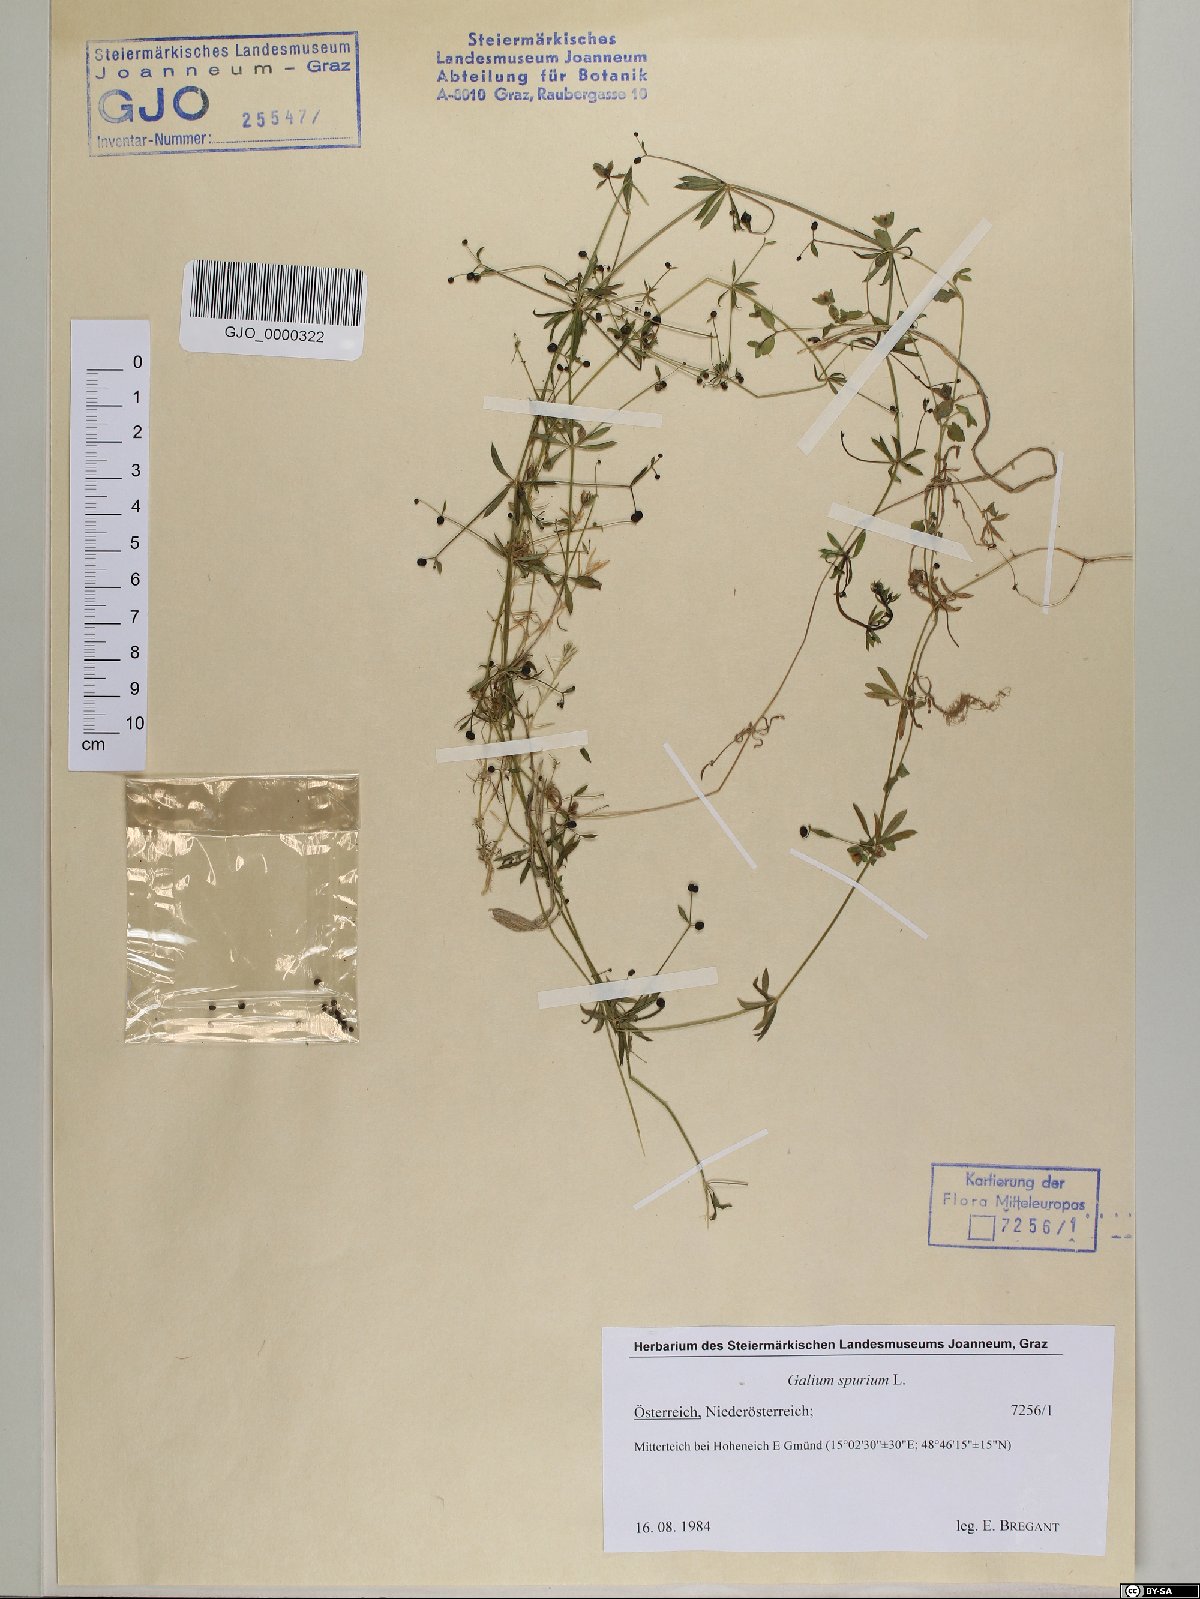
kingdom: Plantae
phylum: Tracheophyta
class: Magnoliopsida
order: Gentianales
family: Rubiaceae
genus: Galium
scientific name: Galium spurium
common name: False cleavers
